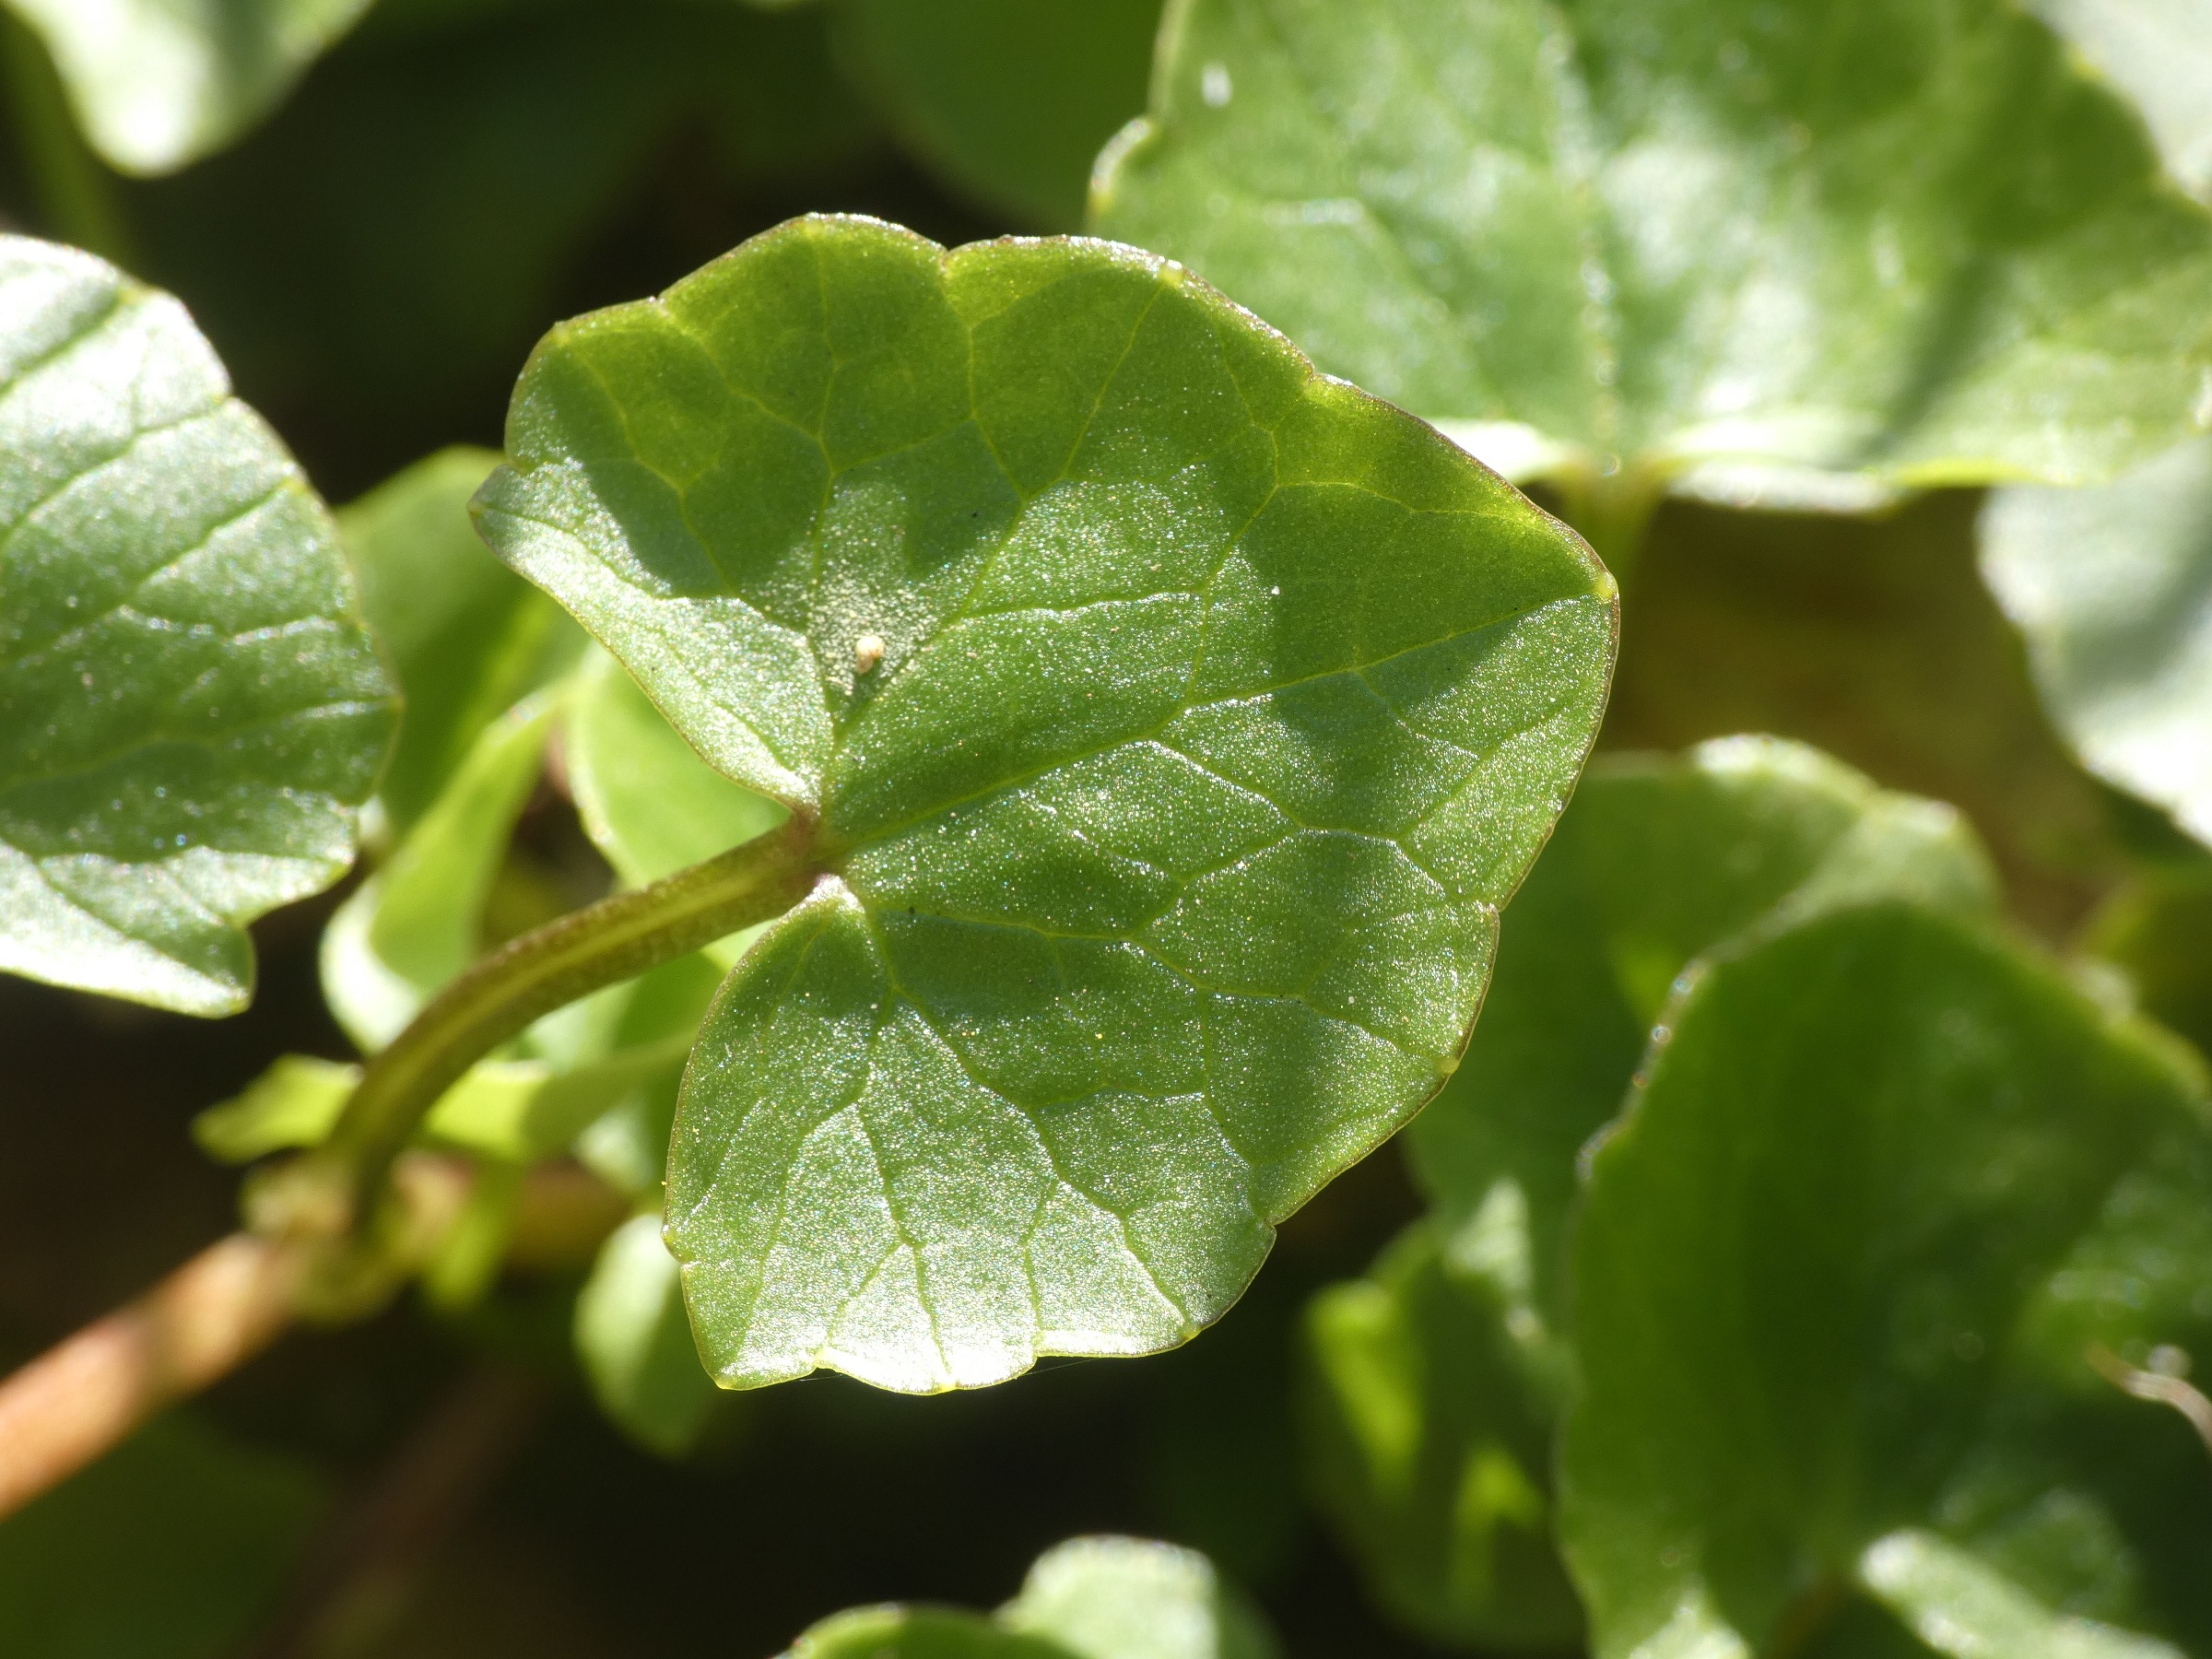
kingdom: Plantae
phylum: Tracheophyta
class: Magnoliopsida
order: Ranunculales
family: Ranunculaceae
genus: Ficaria
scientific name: Ficaria verna
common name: Vorterod
